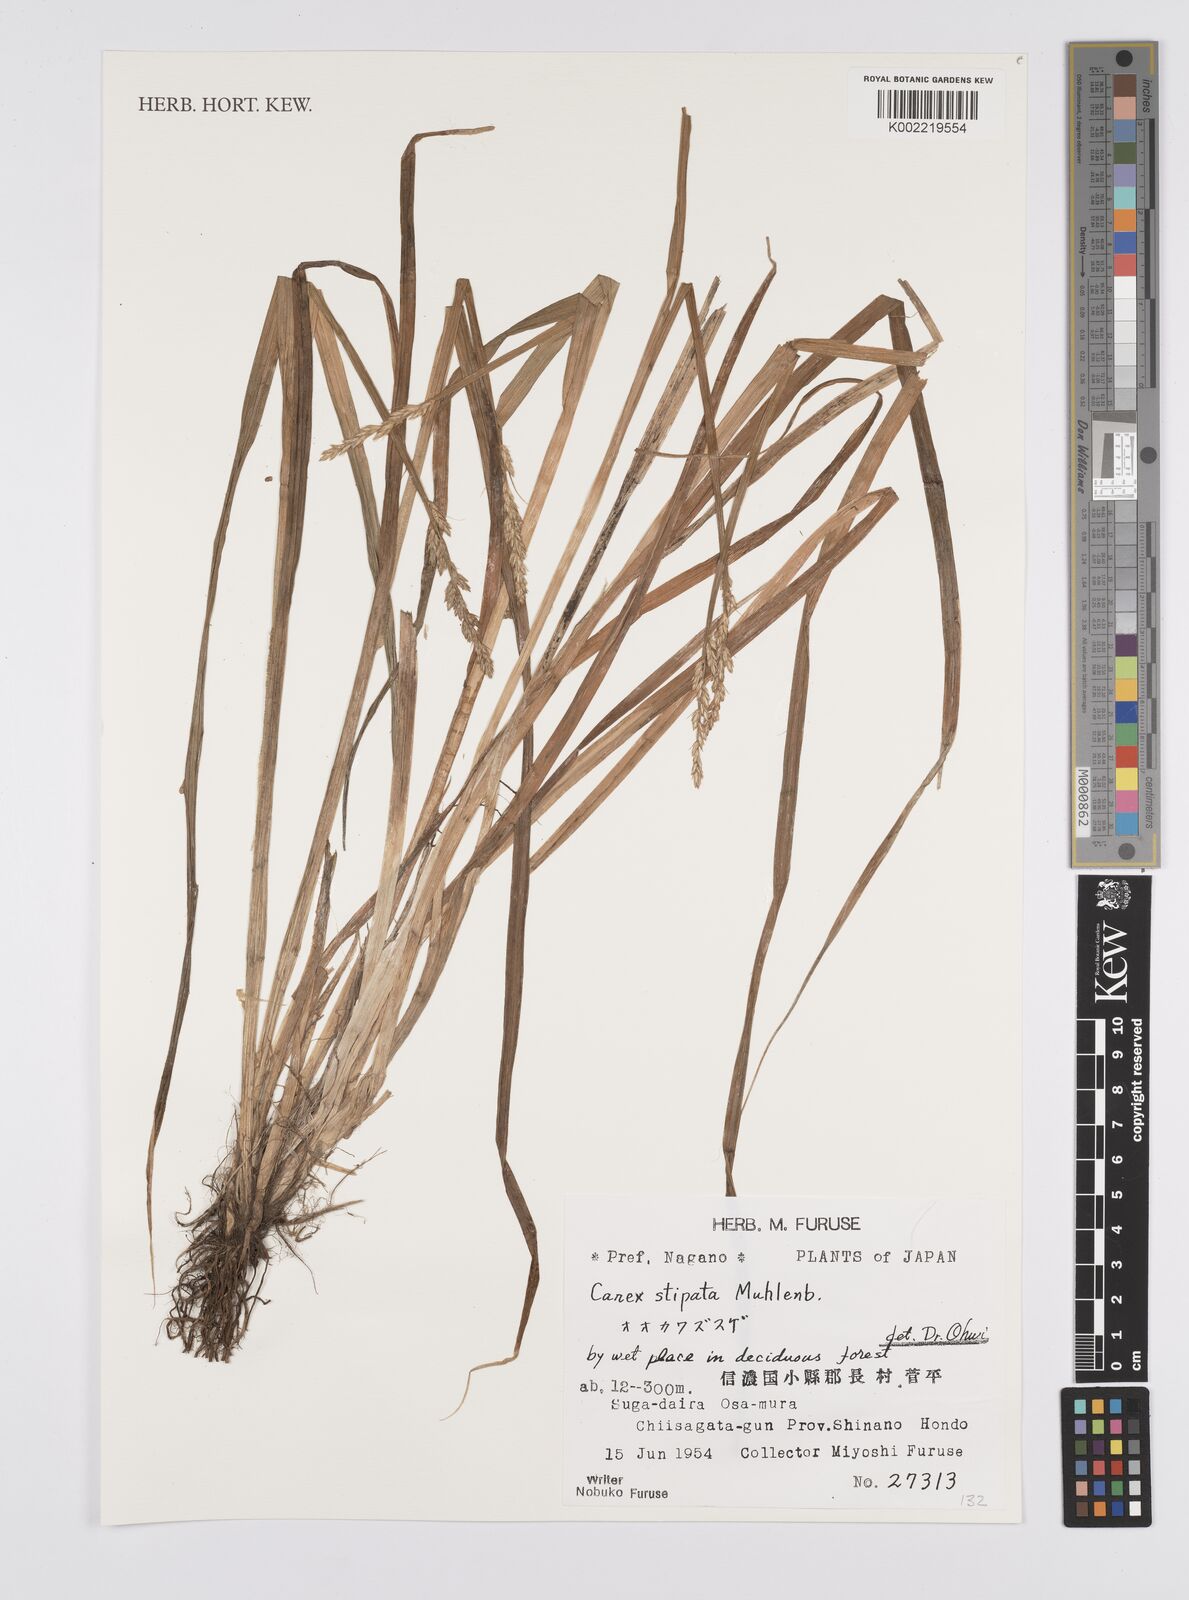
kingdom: Plantae
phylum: Tracheophyta
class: Liliopsida
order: Poales
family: Cyperaceae
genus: Carex
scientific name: Carex stipata
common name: Awl-fruited sedge
